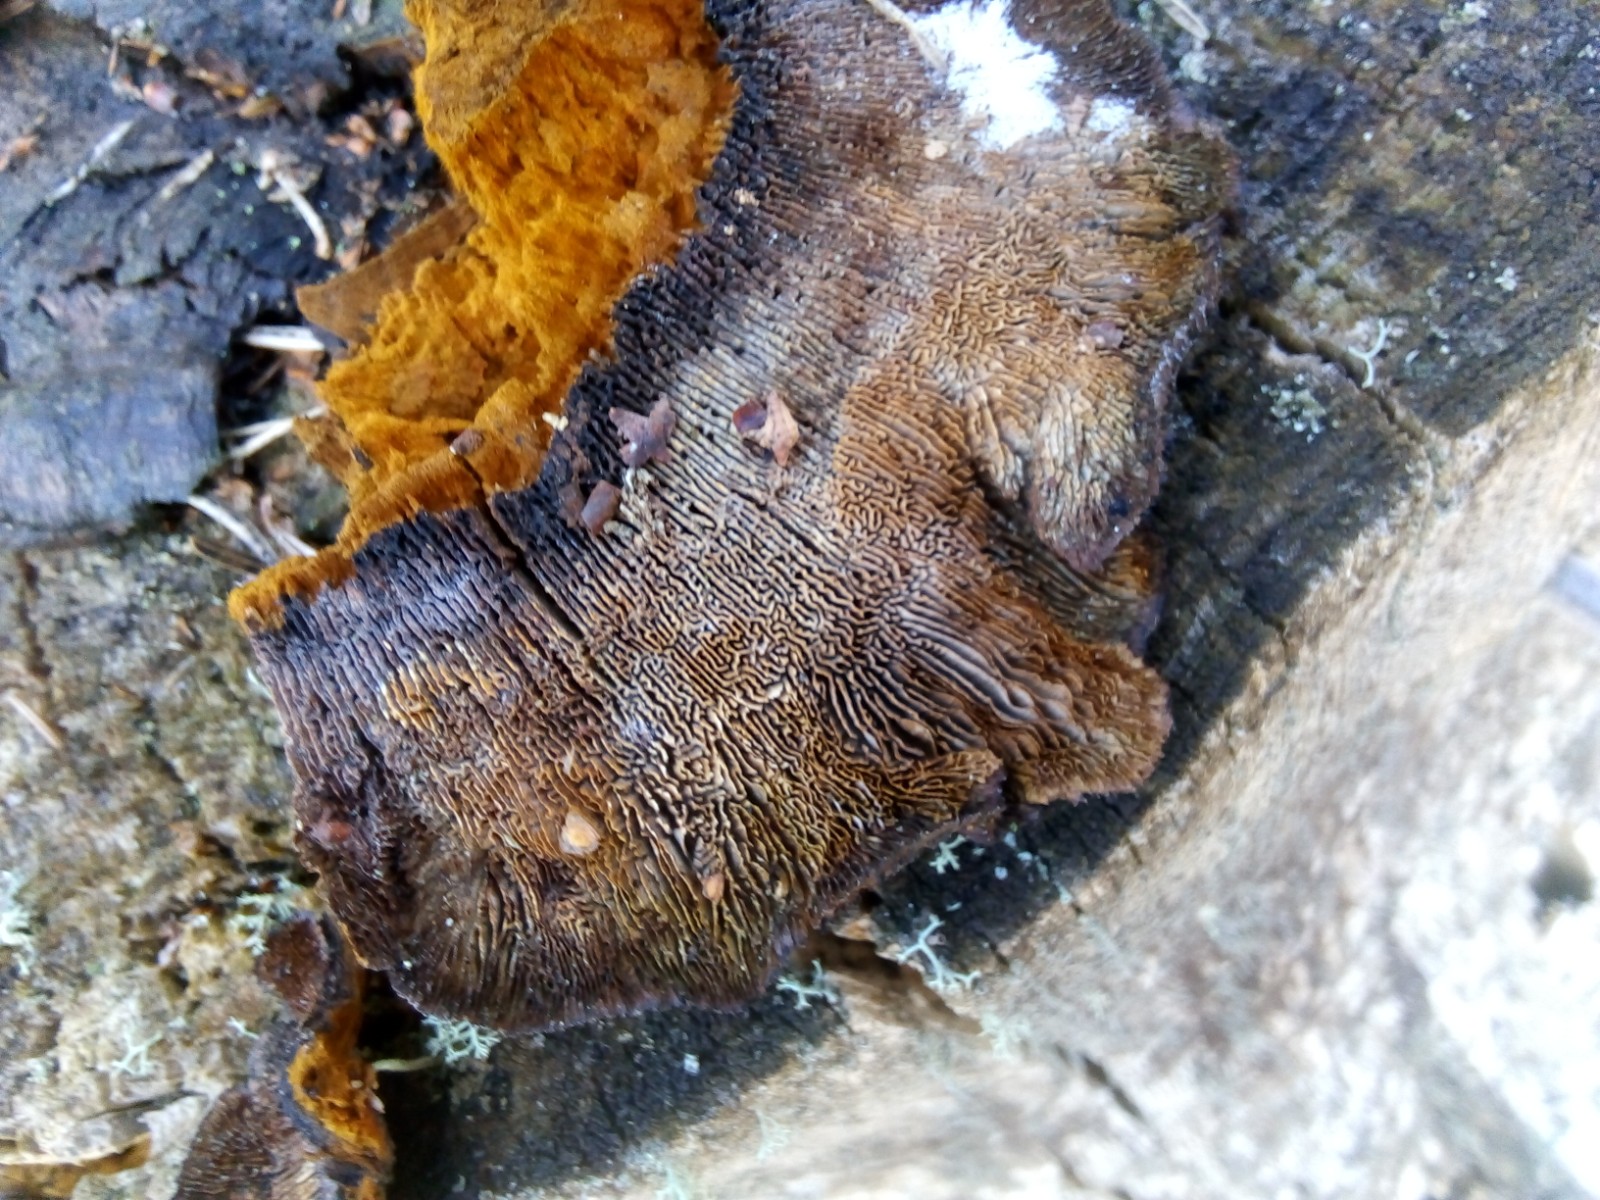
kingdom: Fungi
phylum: Basidiomycota
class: Agaricomycetes
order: Gloeophyllales
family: Gloeophyllaceae
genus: Gloeophyllum
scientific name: Gloeophyllum sepiarium
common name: fyrre-korkhat
